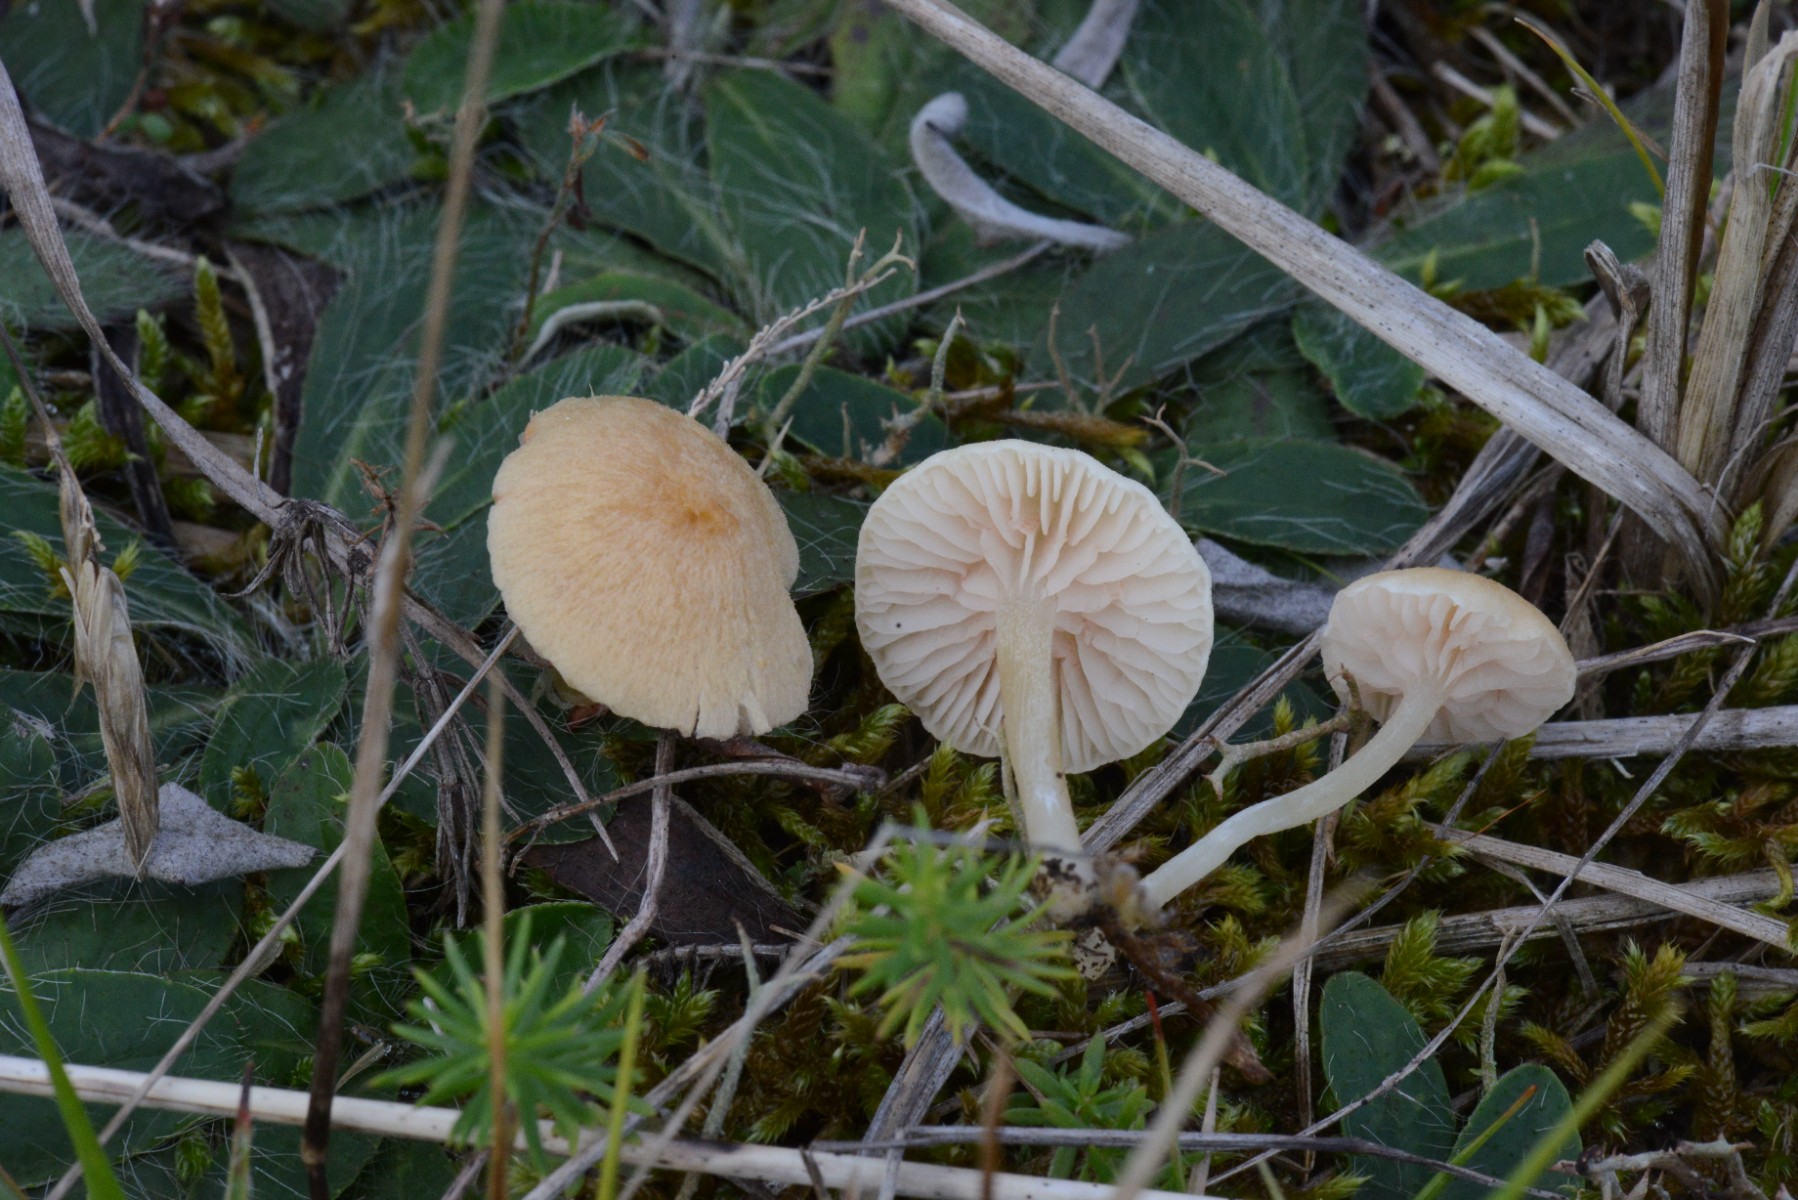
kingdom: Fungi
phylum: Basidiomycota
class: Agaricomycetes
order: Agaricales
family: Entolomataceae
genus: Entoloma
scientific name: Entoloma sericellum
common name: silkehvid rødblad
